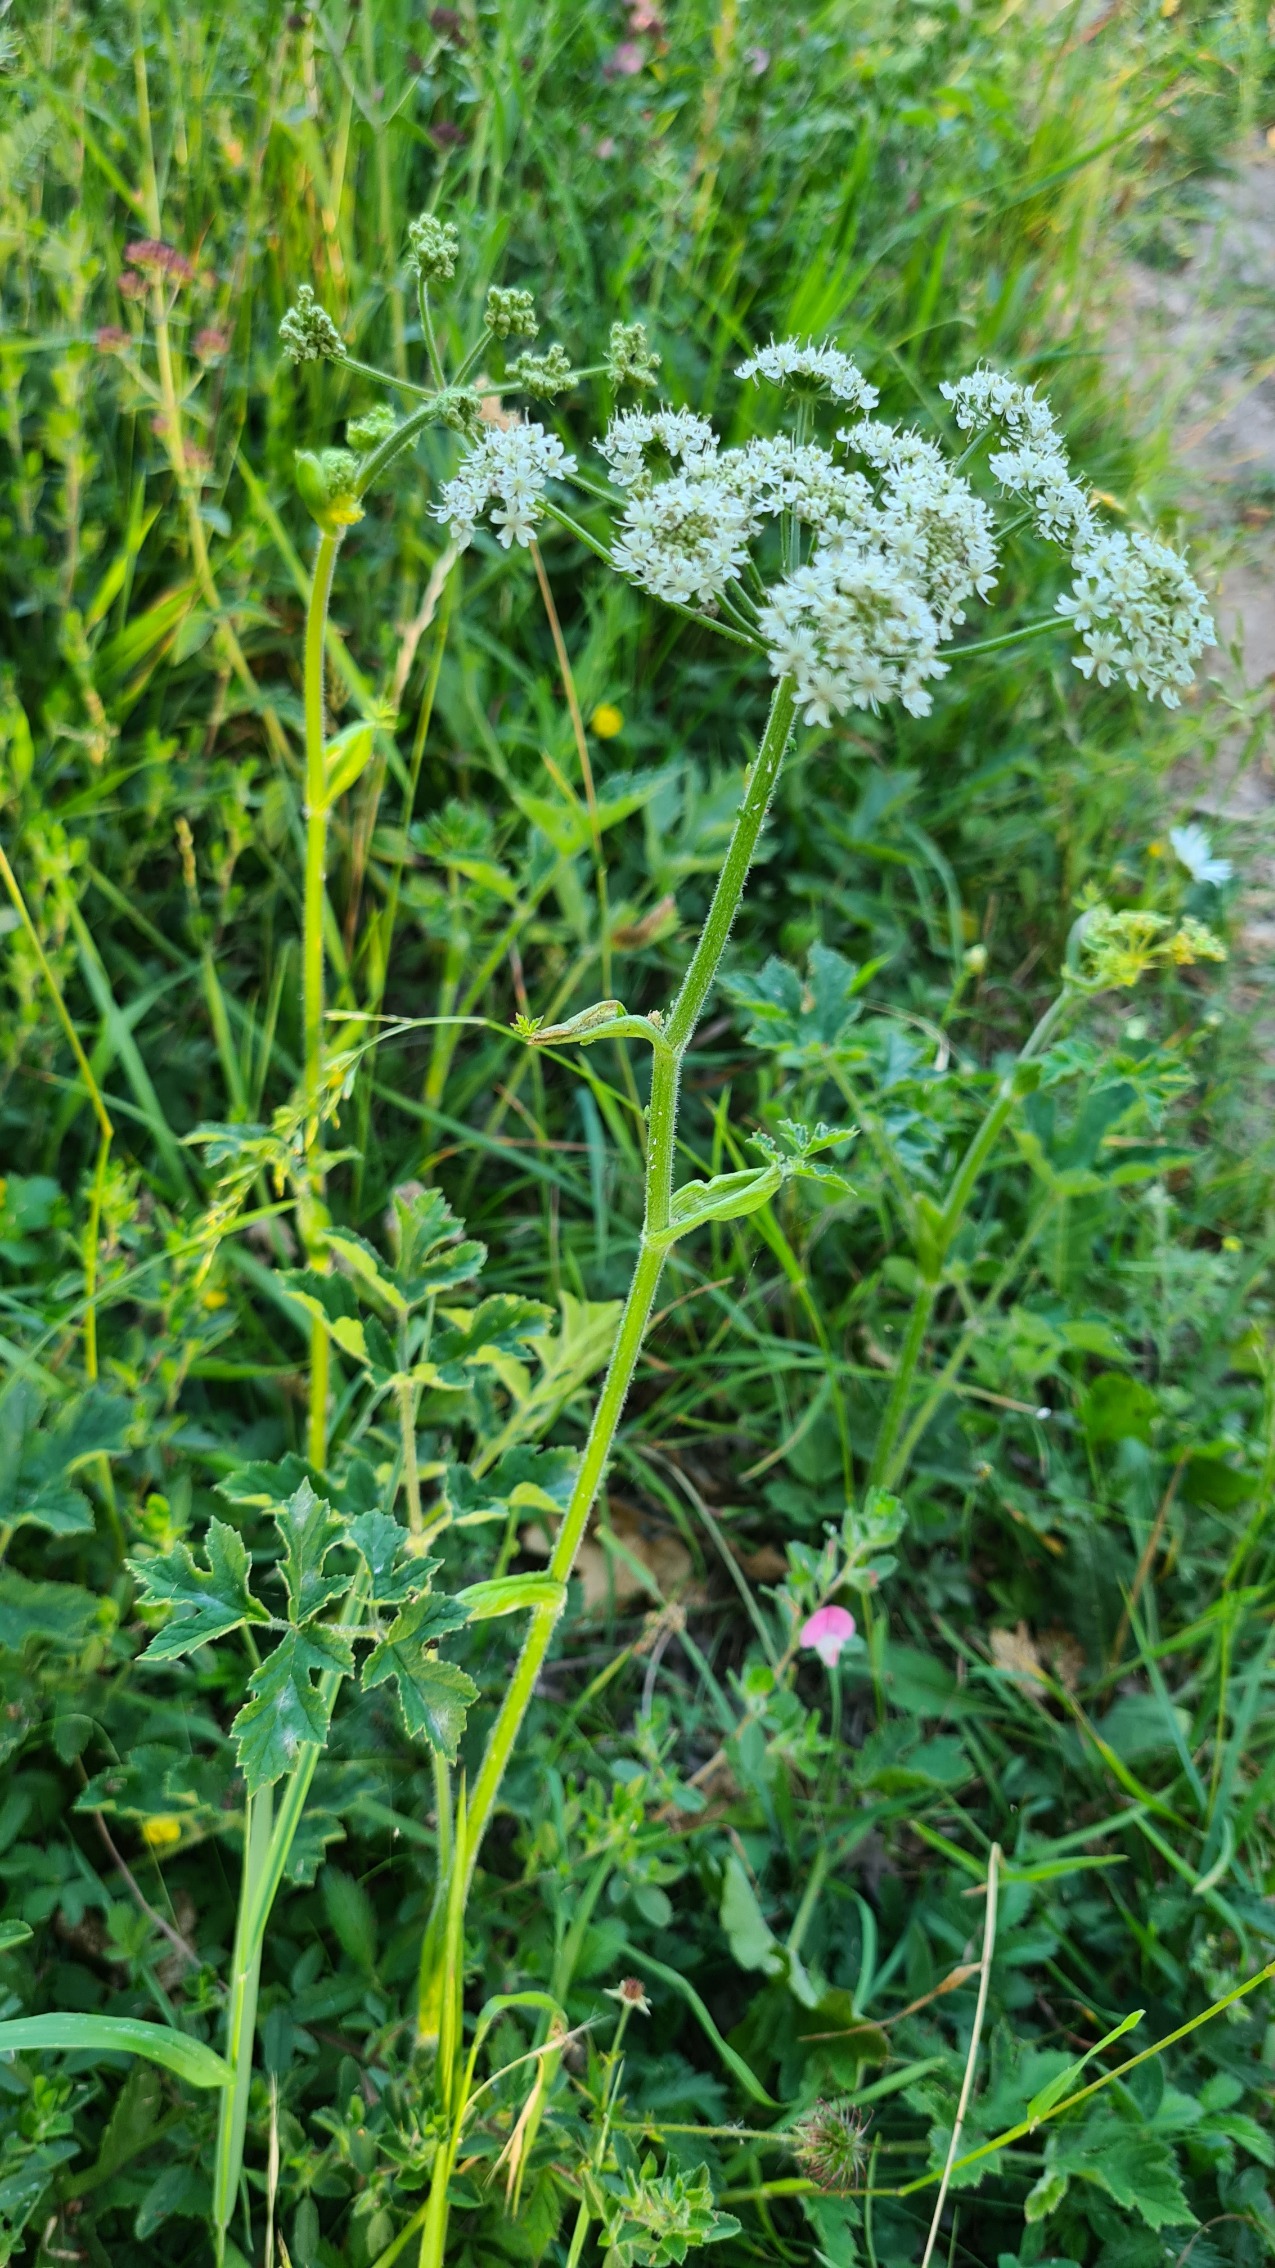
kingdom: Plantae
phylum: Tracheophyta
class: Magnoliopsida
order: Apiales
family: Apiaceae
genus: Heracleum
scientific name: Heracleum sphondylium
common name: Almindelig bjørneklo
